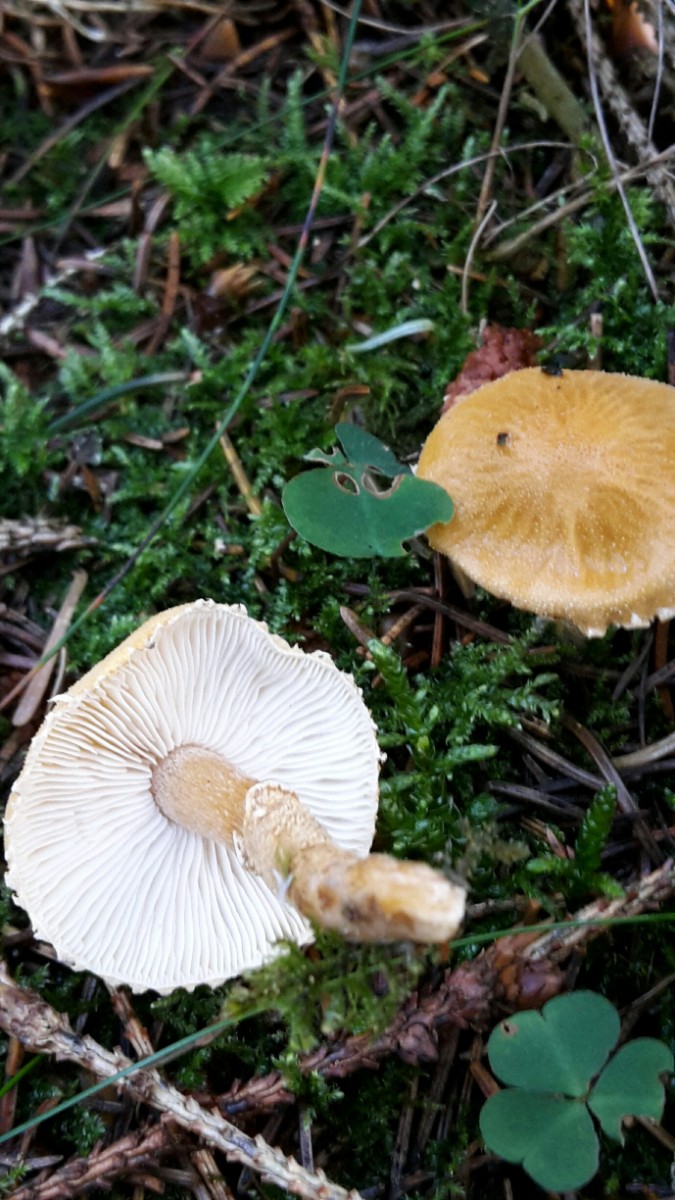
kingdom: Fungi
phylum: Basidiomycota
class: Agaricomycetes
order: Agaricales
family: Tricholomataceae
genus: Cystoderma
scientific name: Cystoderma amianthinum
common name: okkergul grynhat
